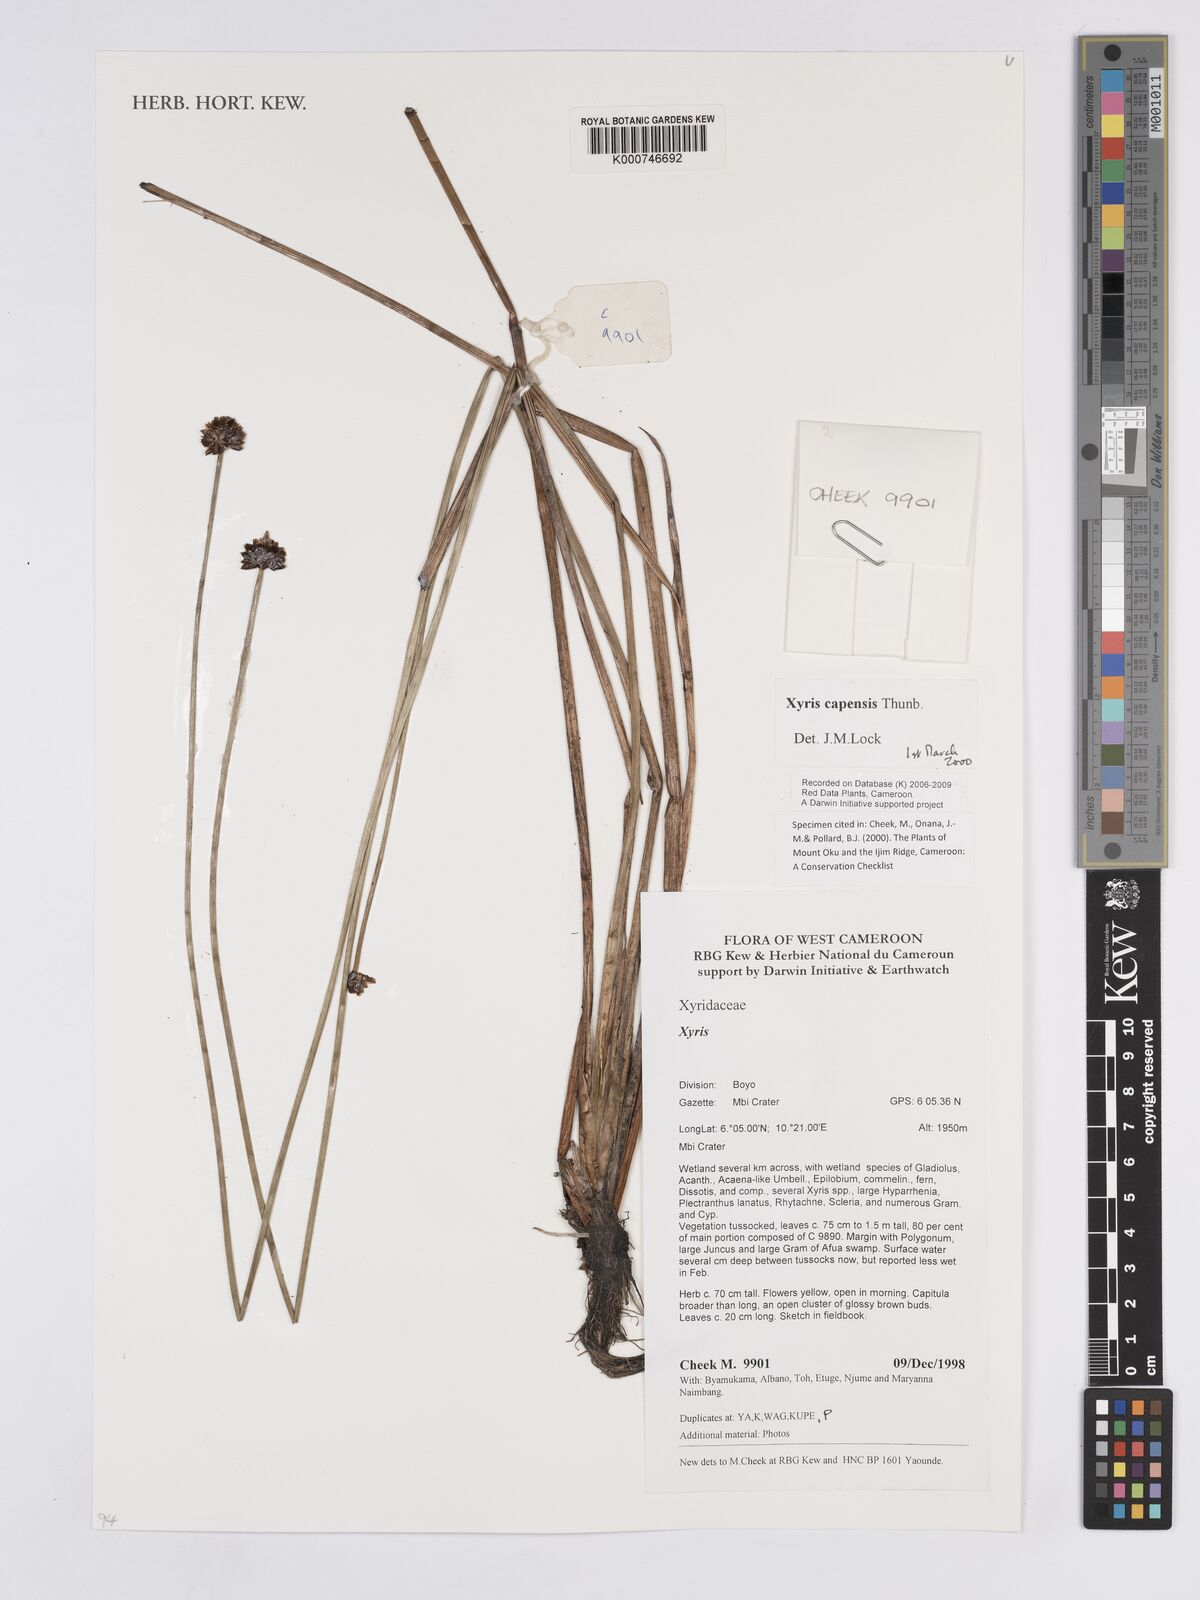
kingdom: Plantae
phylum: Tracheophyta
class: Liliopsida
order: Poales
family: Xyridaceae
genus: Xyris
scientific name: Xyris capensis
